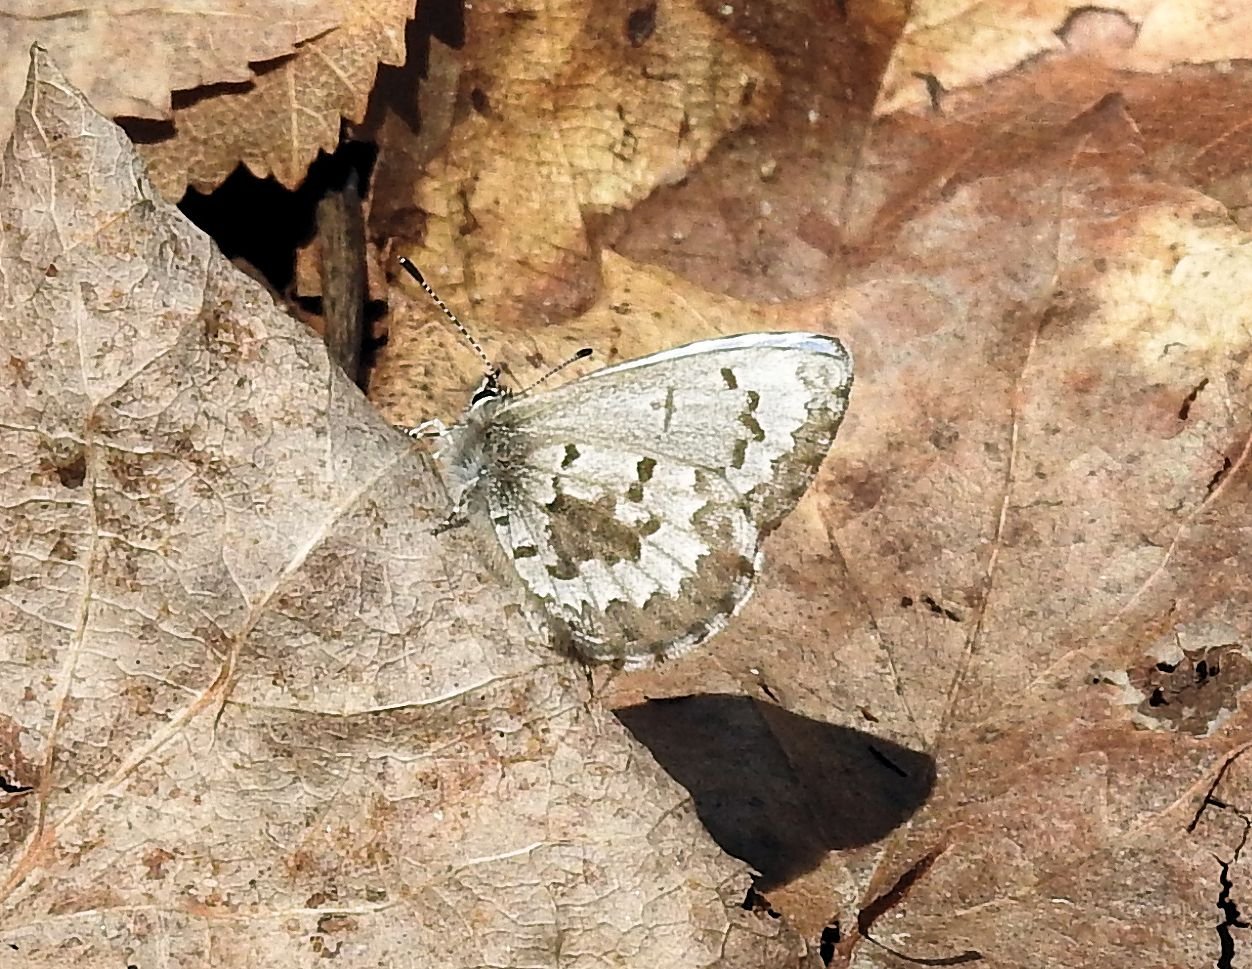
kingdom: Animalia
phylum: Arthropoda
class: Insecta
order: Lepidoptera
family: Lycaenidae
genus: Celastrina
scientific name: Celastrina lucia
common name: Northern Spring Azure
